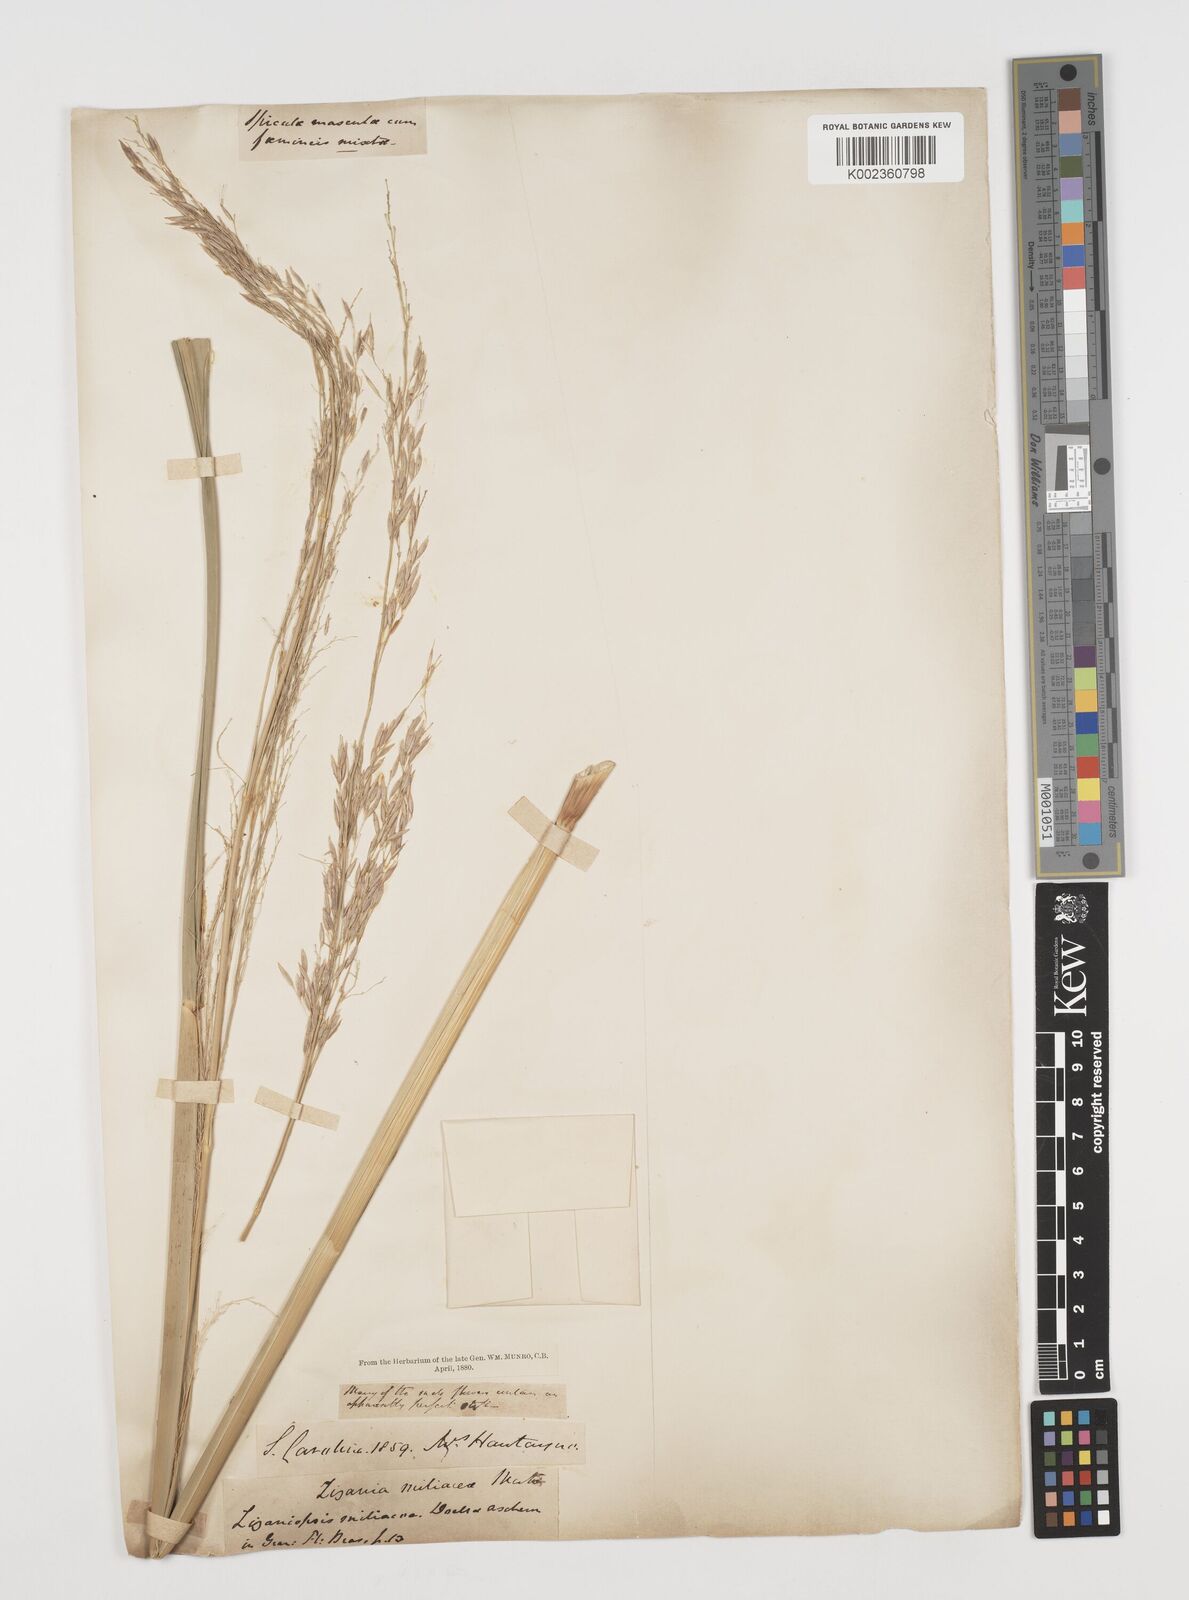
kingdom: Plantae
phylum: Tracheophyta
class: Liliopsida
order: Poales
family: Poaceae
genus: Zizaniopsis
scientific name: Zizaniopsis miliacea
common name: Giant-cutgrass
